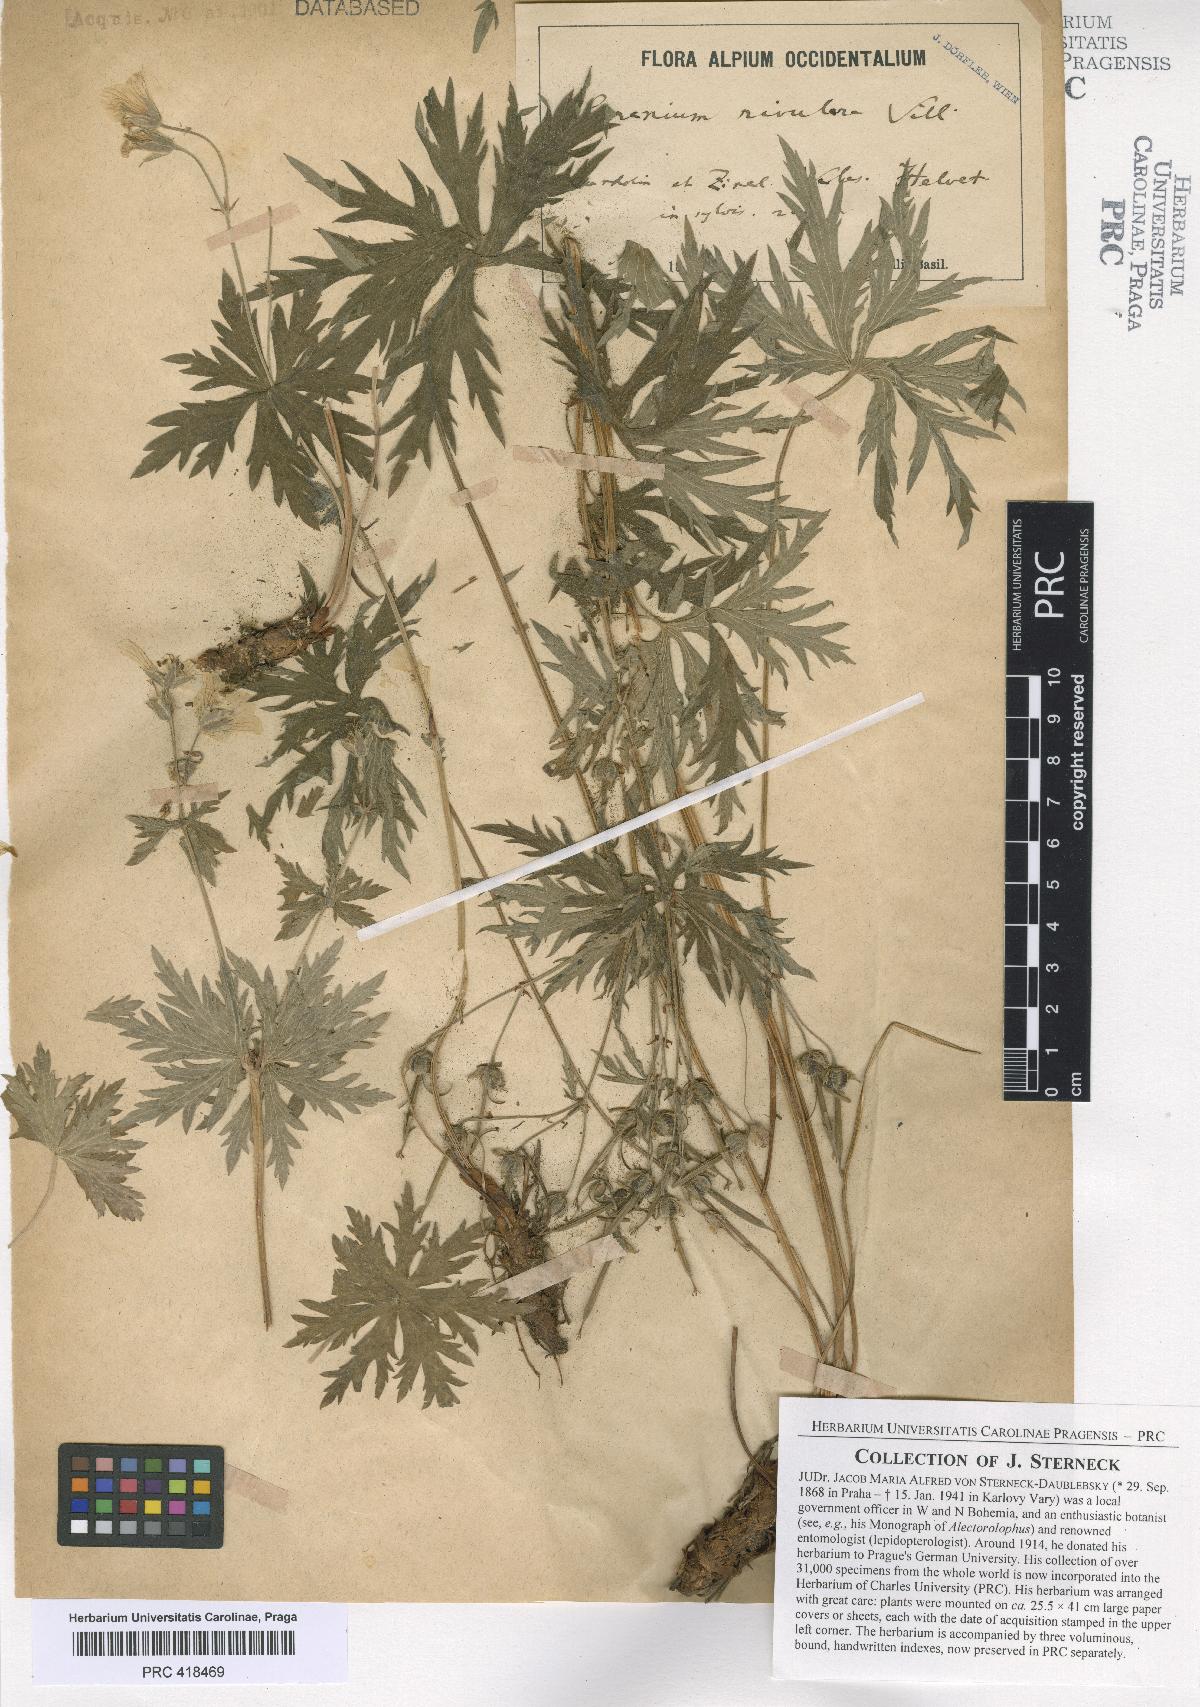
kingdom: Plantae
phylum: Tracheophyta
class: Magnoliopsida
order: Geraniales
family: Geraniaceae
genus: Geranium
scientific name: Geranium rivulare
